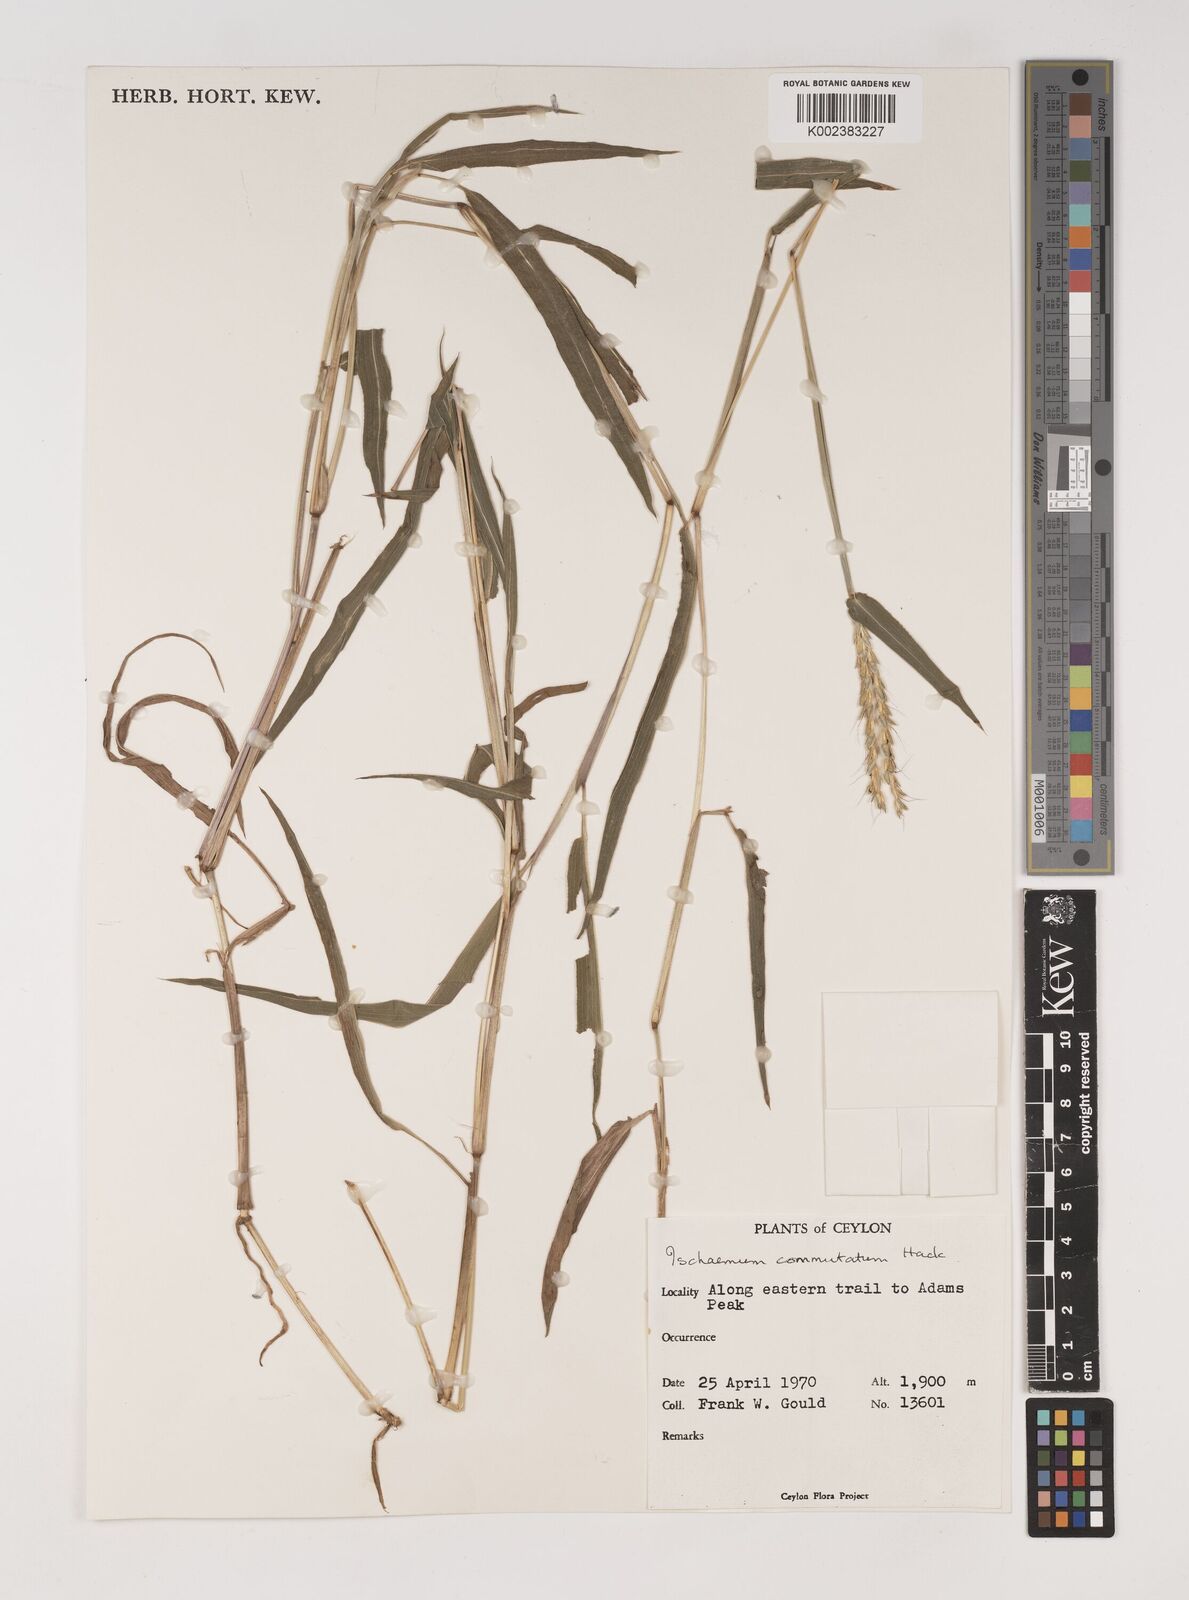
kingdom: Plantae
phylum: Tracheophyta
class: Liliopsida
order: Poales
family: Poaceae
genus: Ischaemum
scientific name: Ischaemum commutatum
